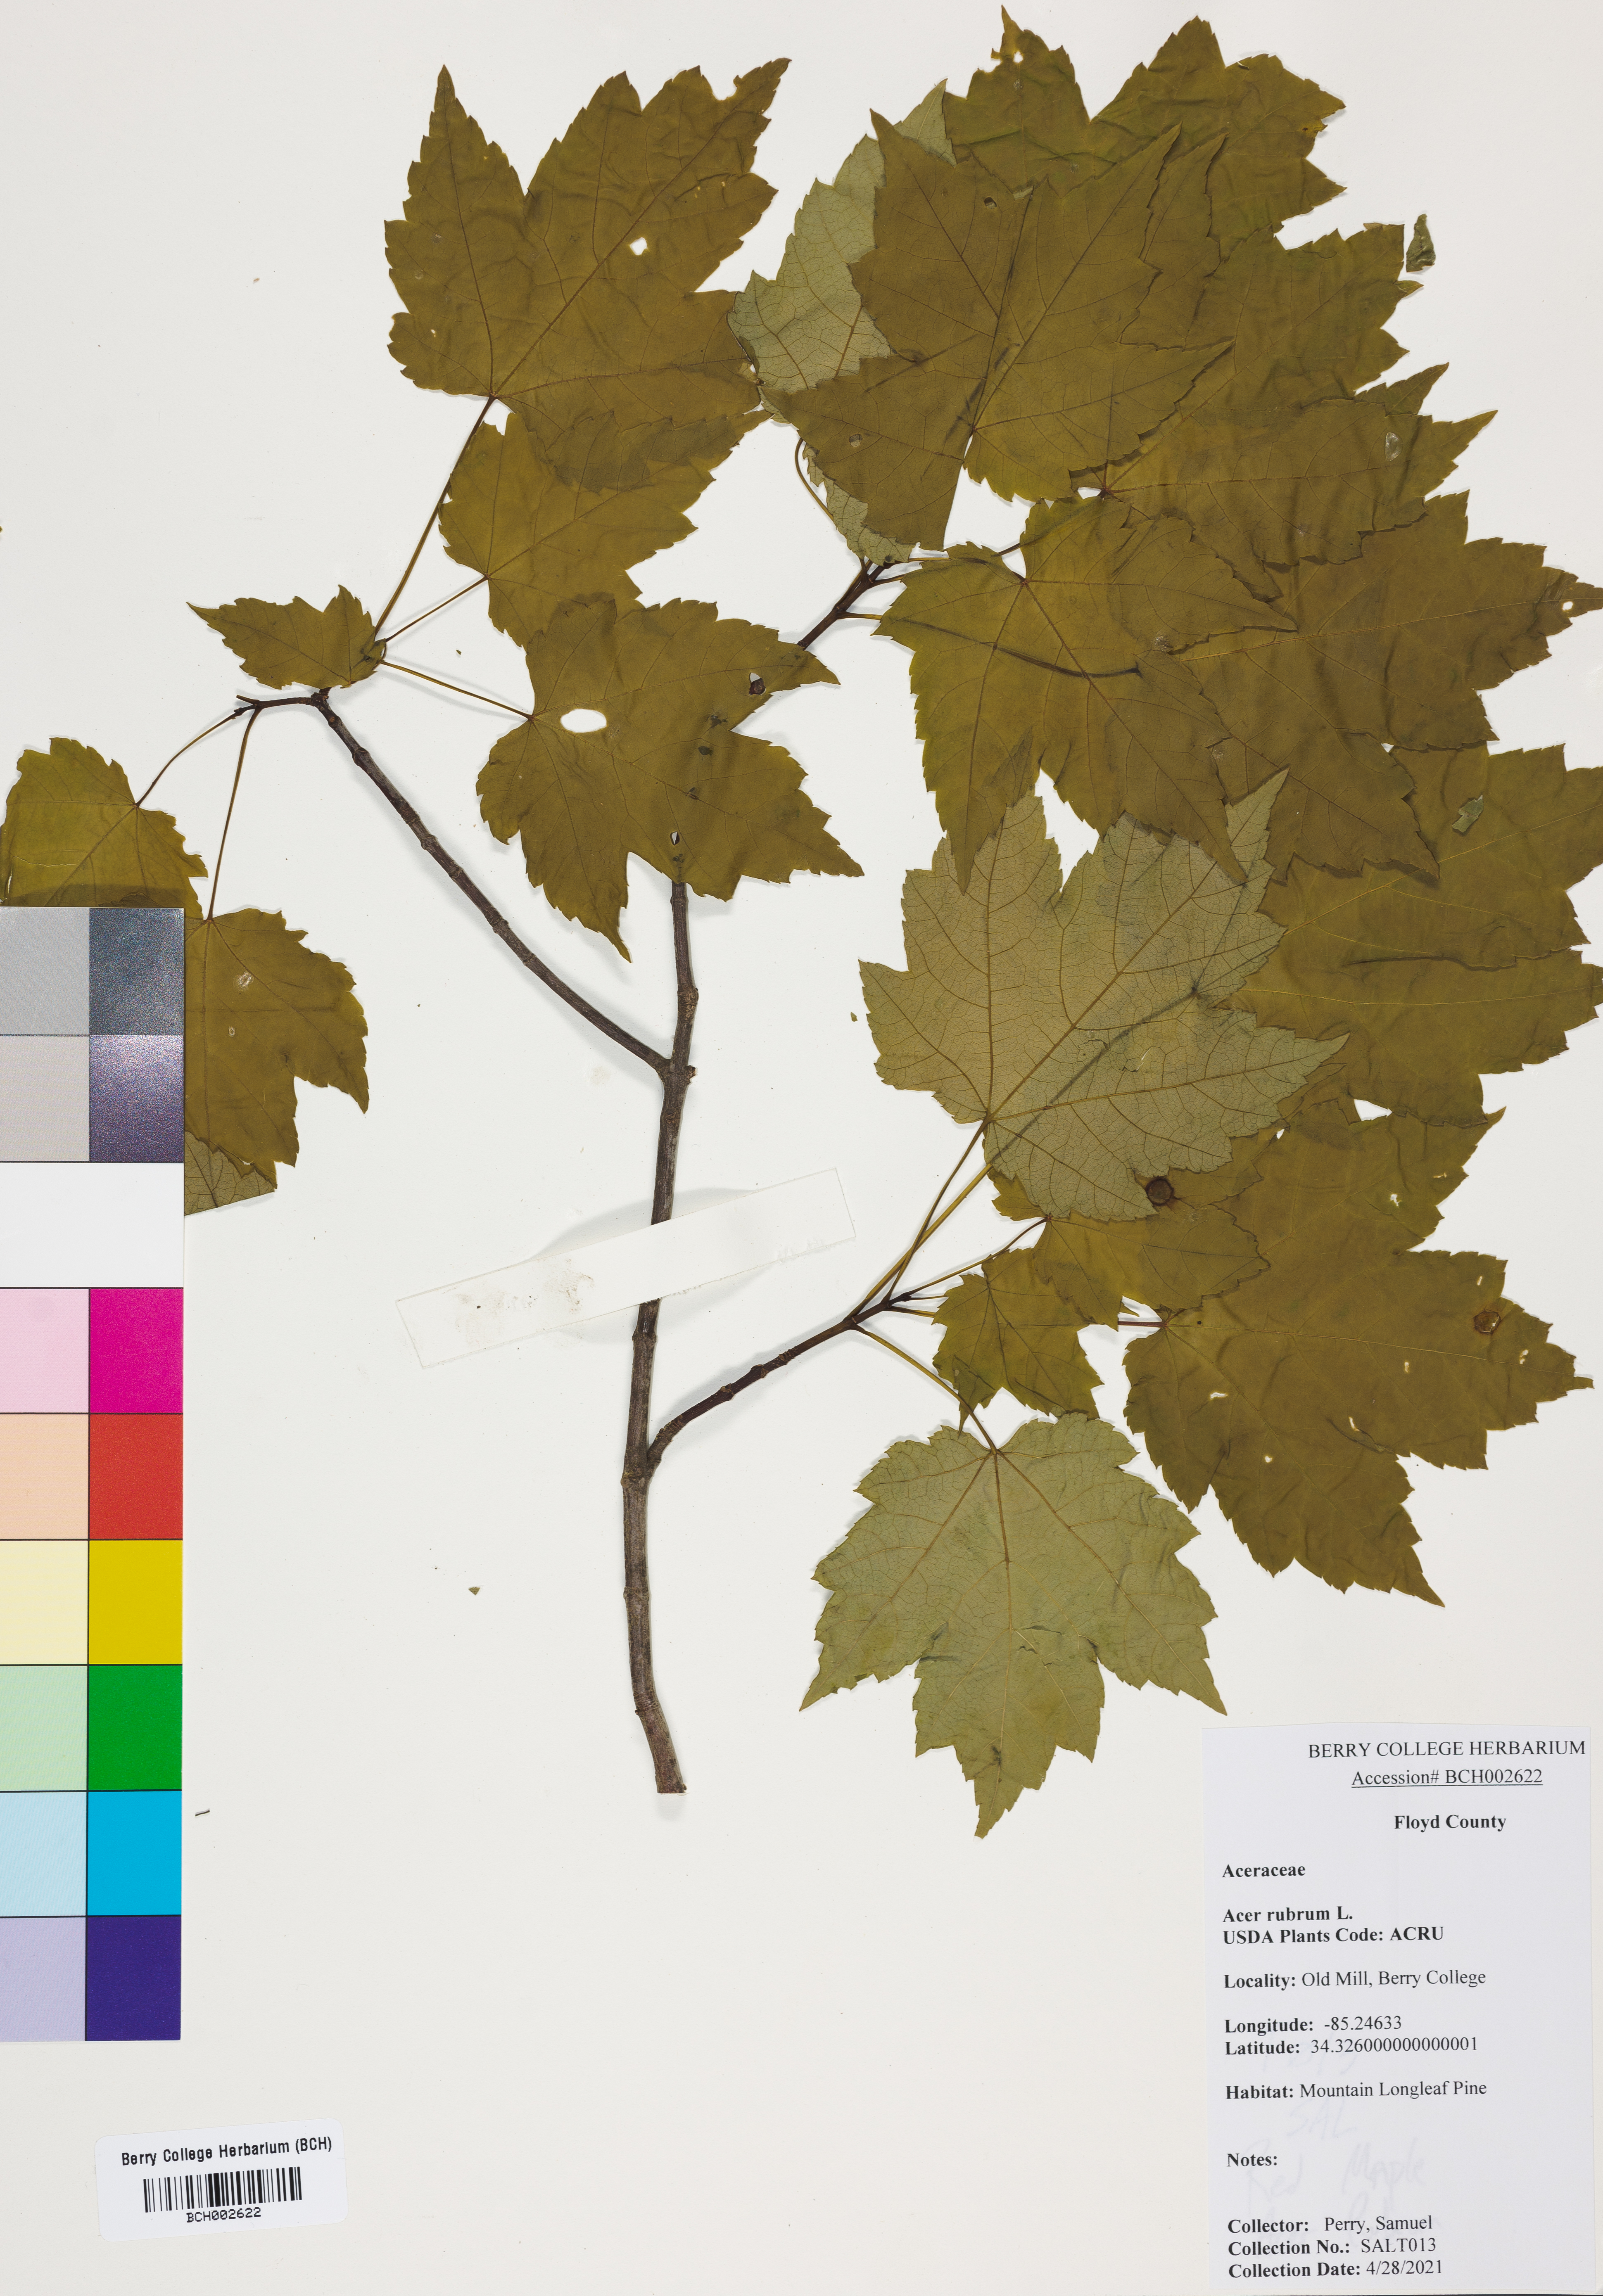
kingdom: Plantae
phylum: Tracheophyta
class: Magnoliopsida
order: Sapindales
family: Sapindaceae
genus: Acer
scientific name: Acer rubrum
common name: Red maple
